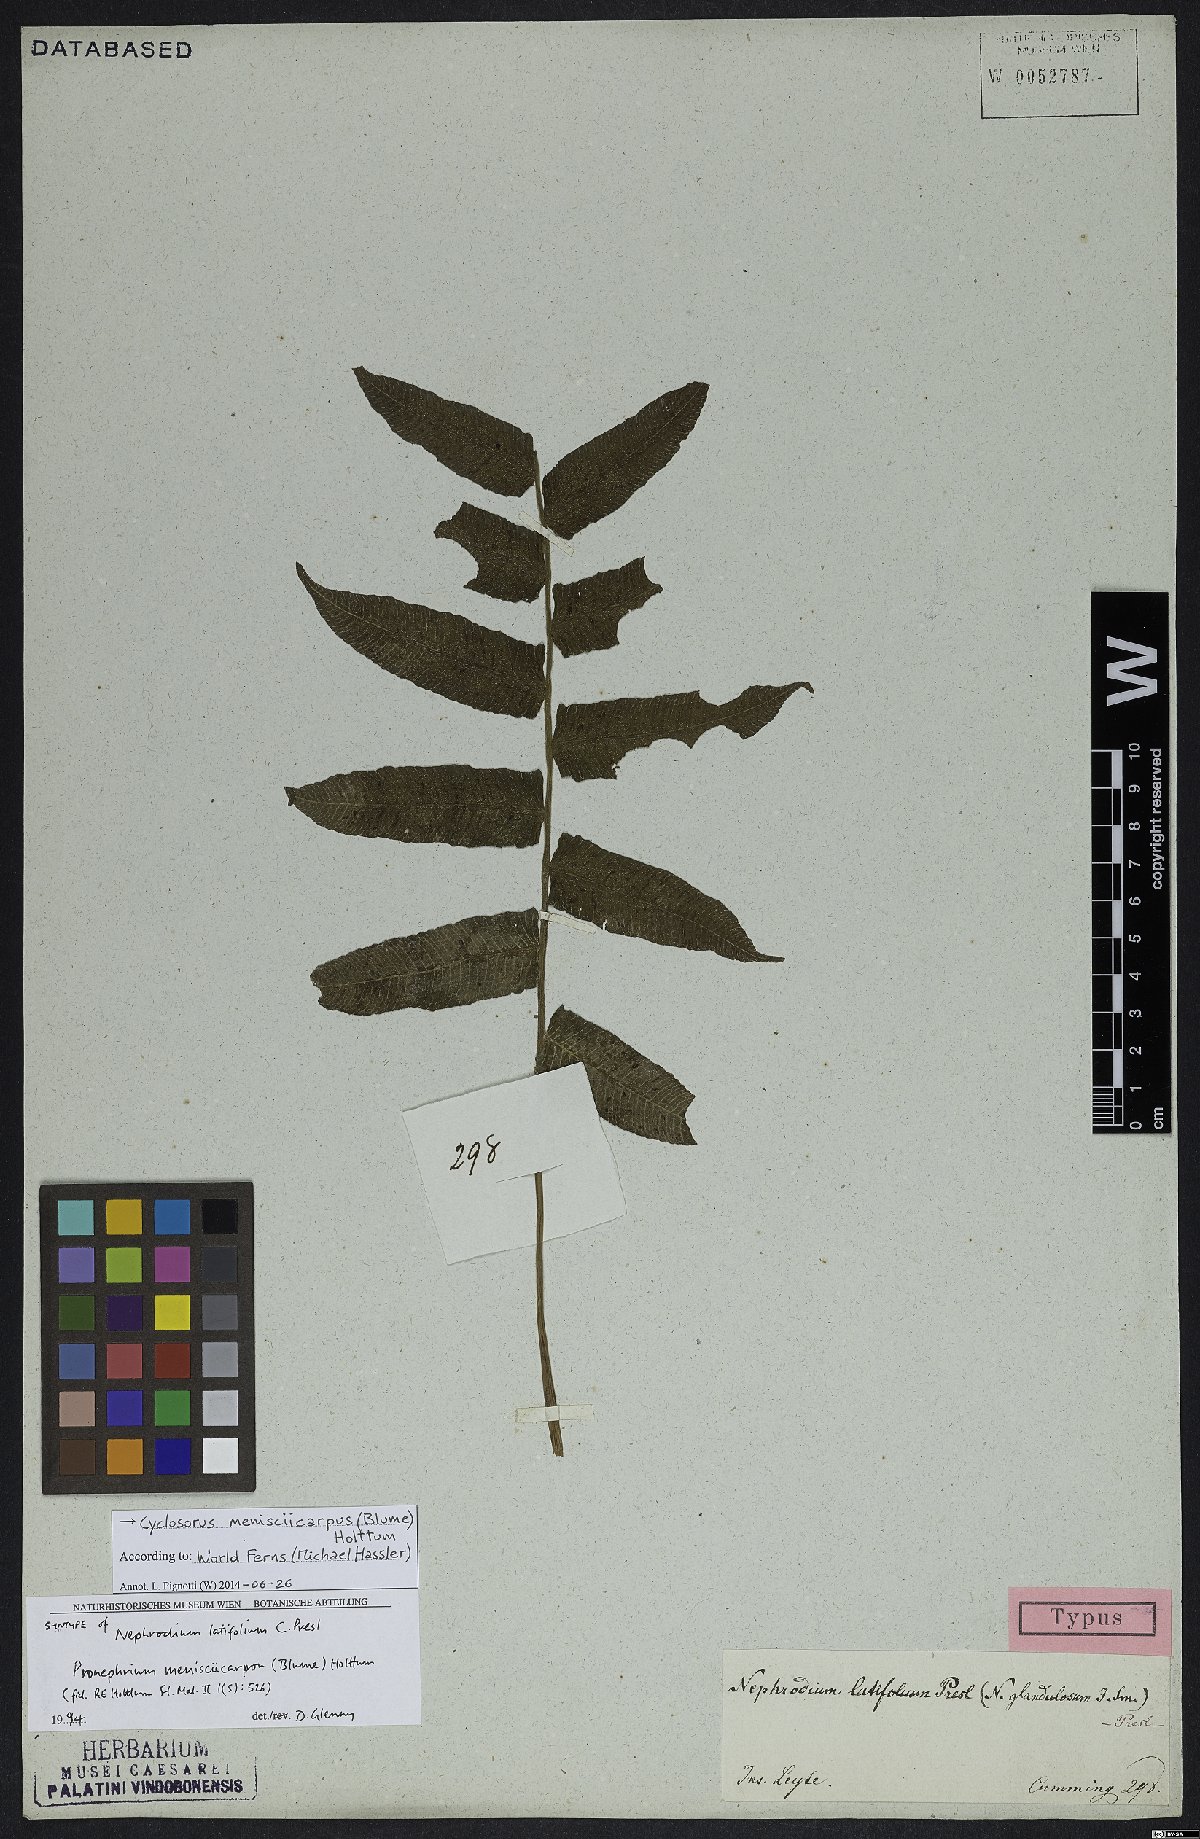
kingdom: Plantae
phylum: Tracheophyta
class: Polypodiopsida
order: Polypodiales
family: Thelypteridaceae
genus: Pronephrium
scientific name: Pronephrium menisciicarpon
